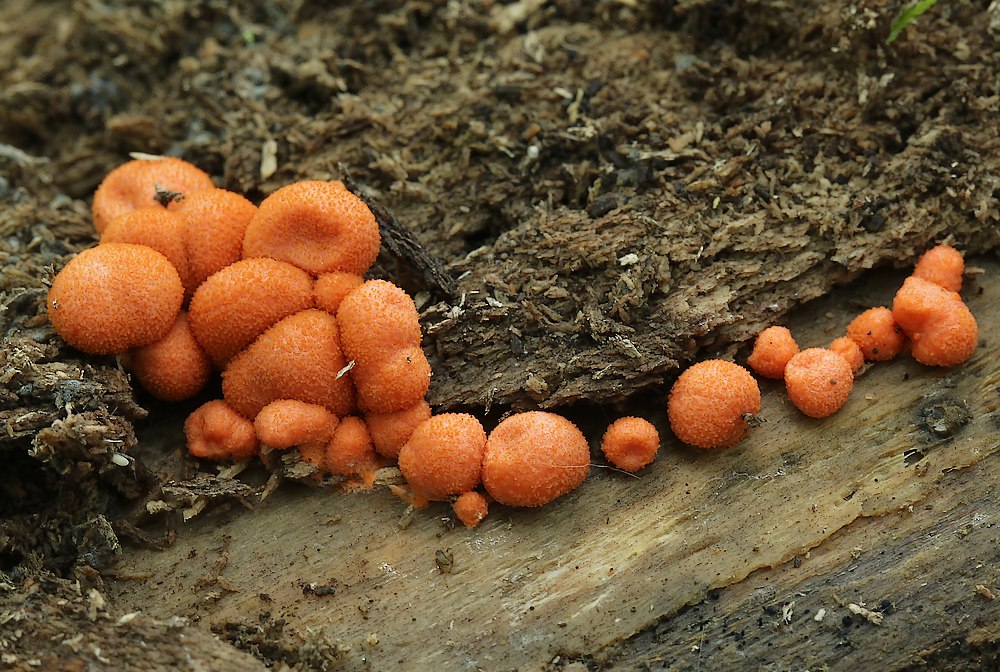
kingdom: Protozoa
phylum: Mycetozoa
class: Myxomycetes
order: Cribrariales
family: Tubiferaceae
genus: Lycogala
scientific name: Lycogala epidendrum
